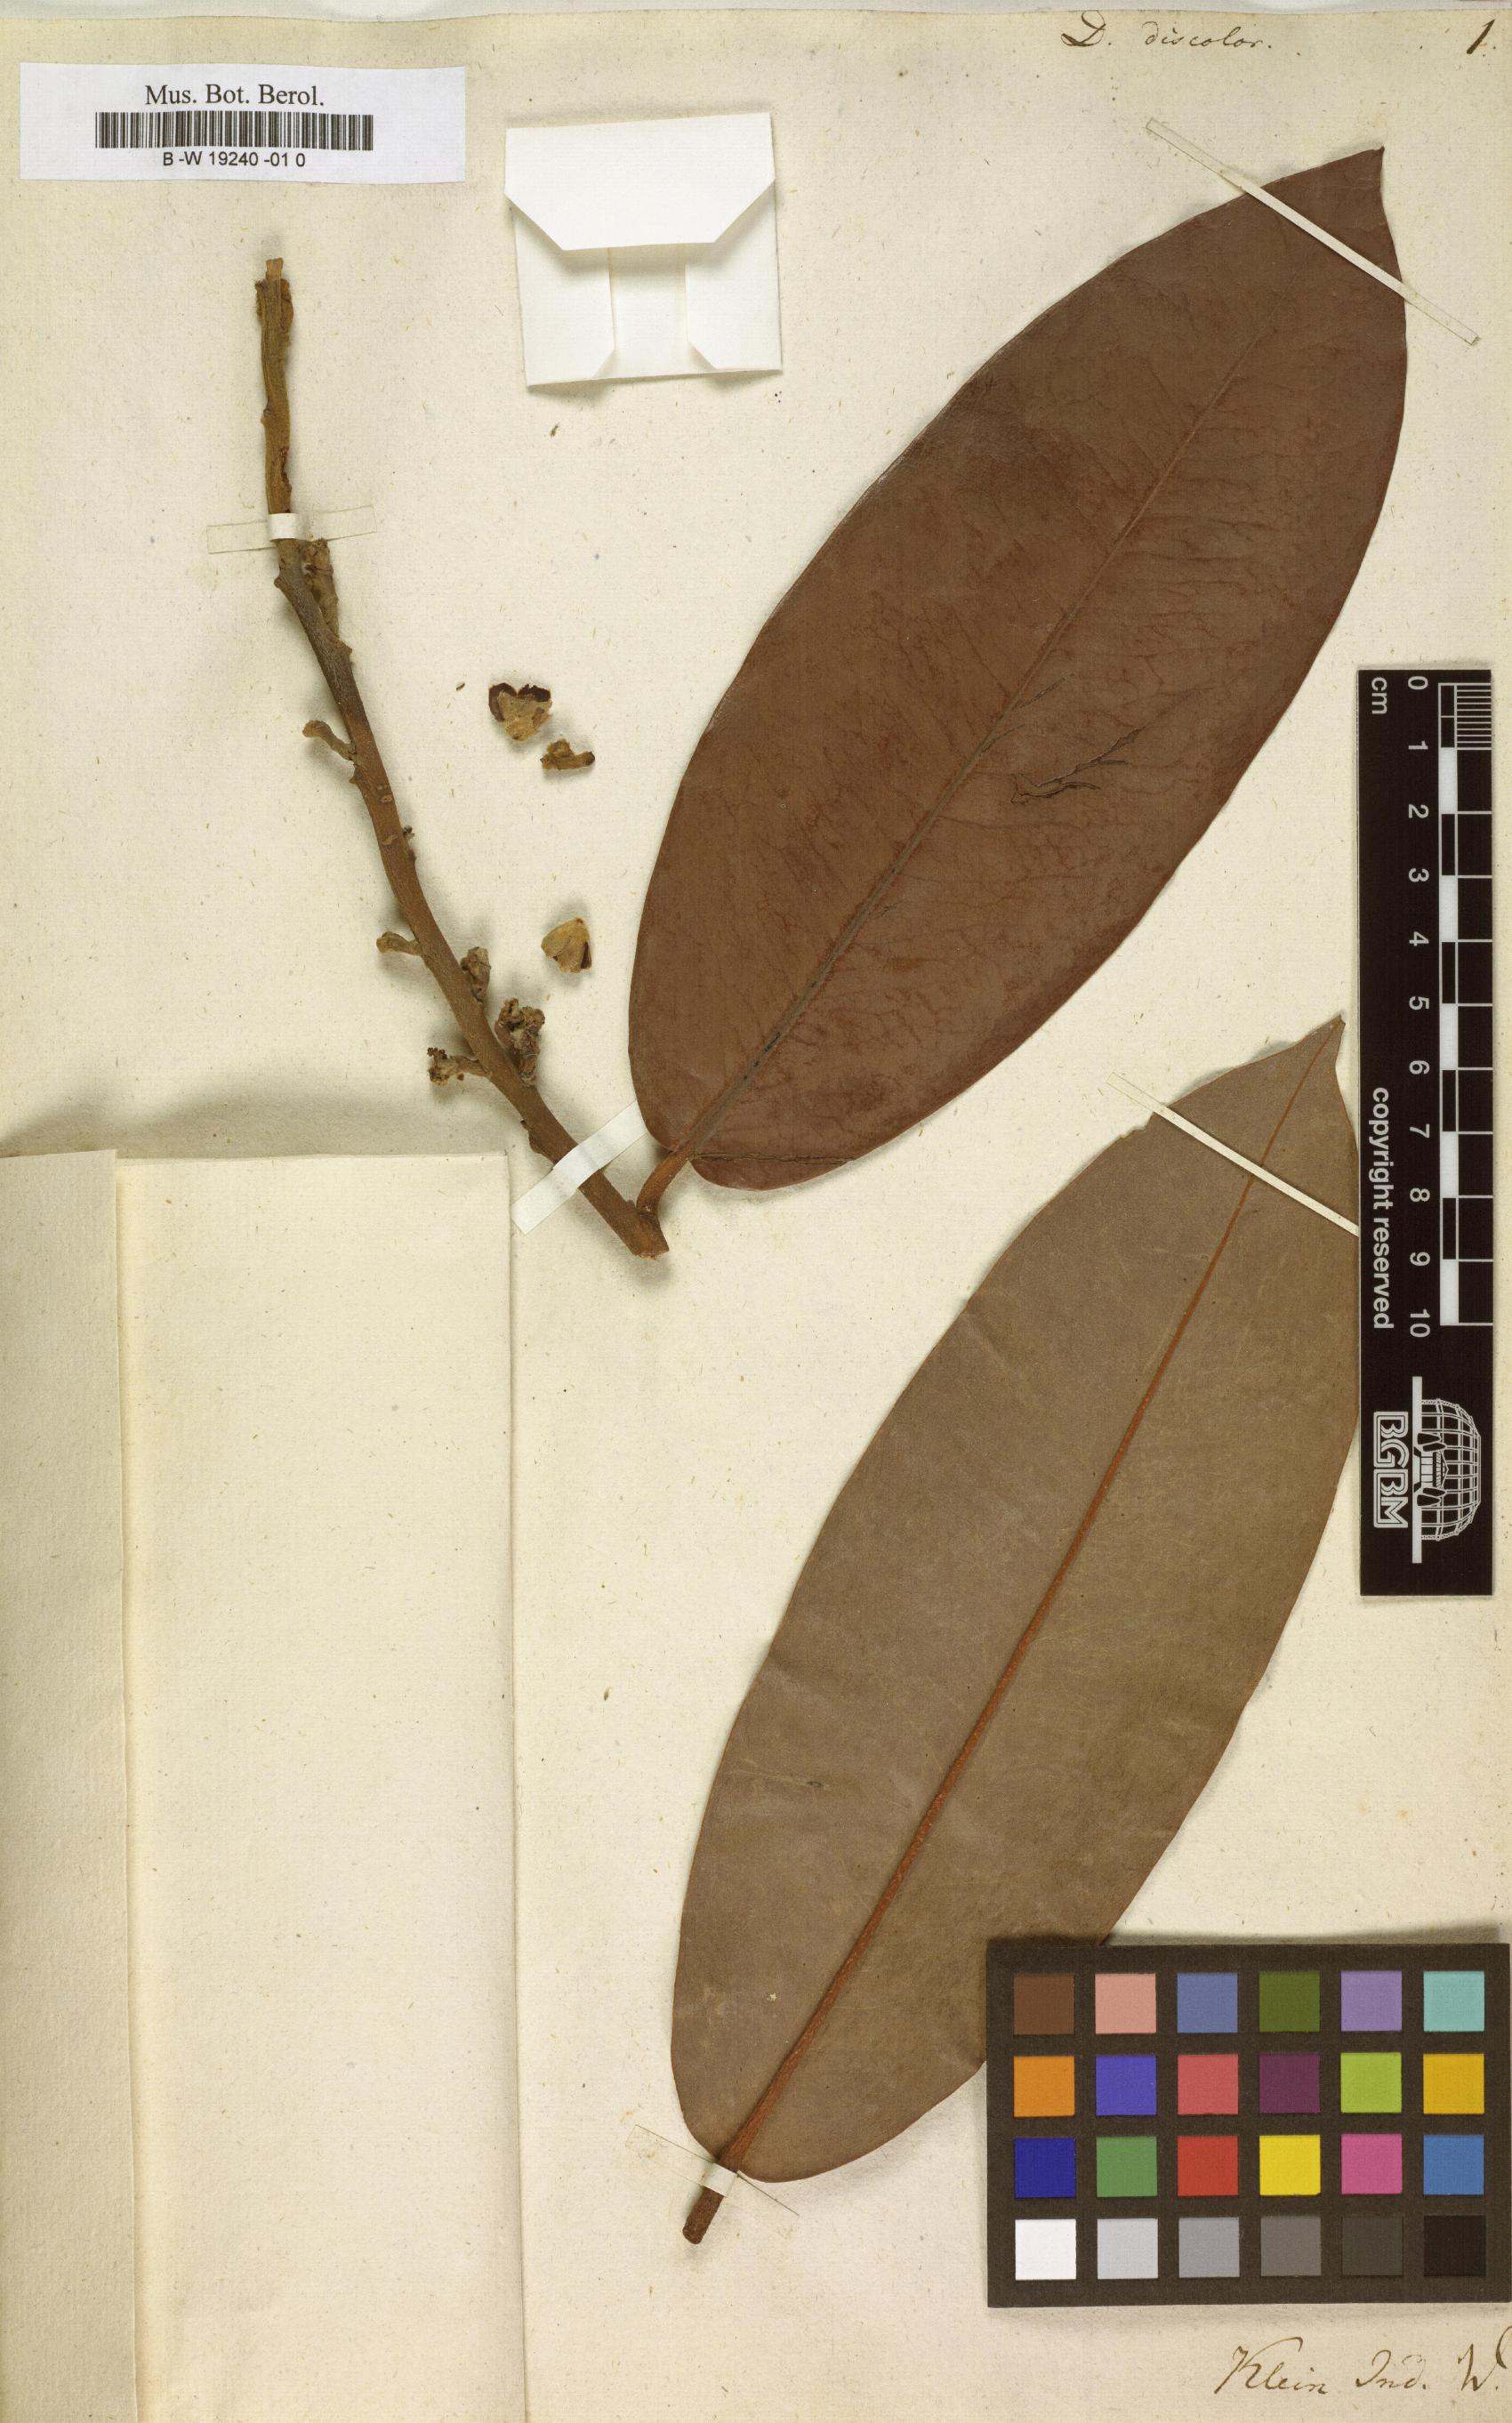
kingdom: Plantae
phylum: Tracheophyta
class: Magnoliopsida
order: Ericales
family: Ebenaceae
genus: Diospyros
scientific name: Diospyros blancoi
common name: Mabola-tree
